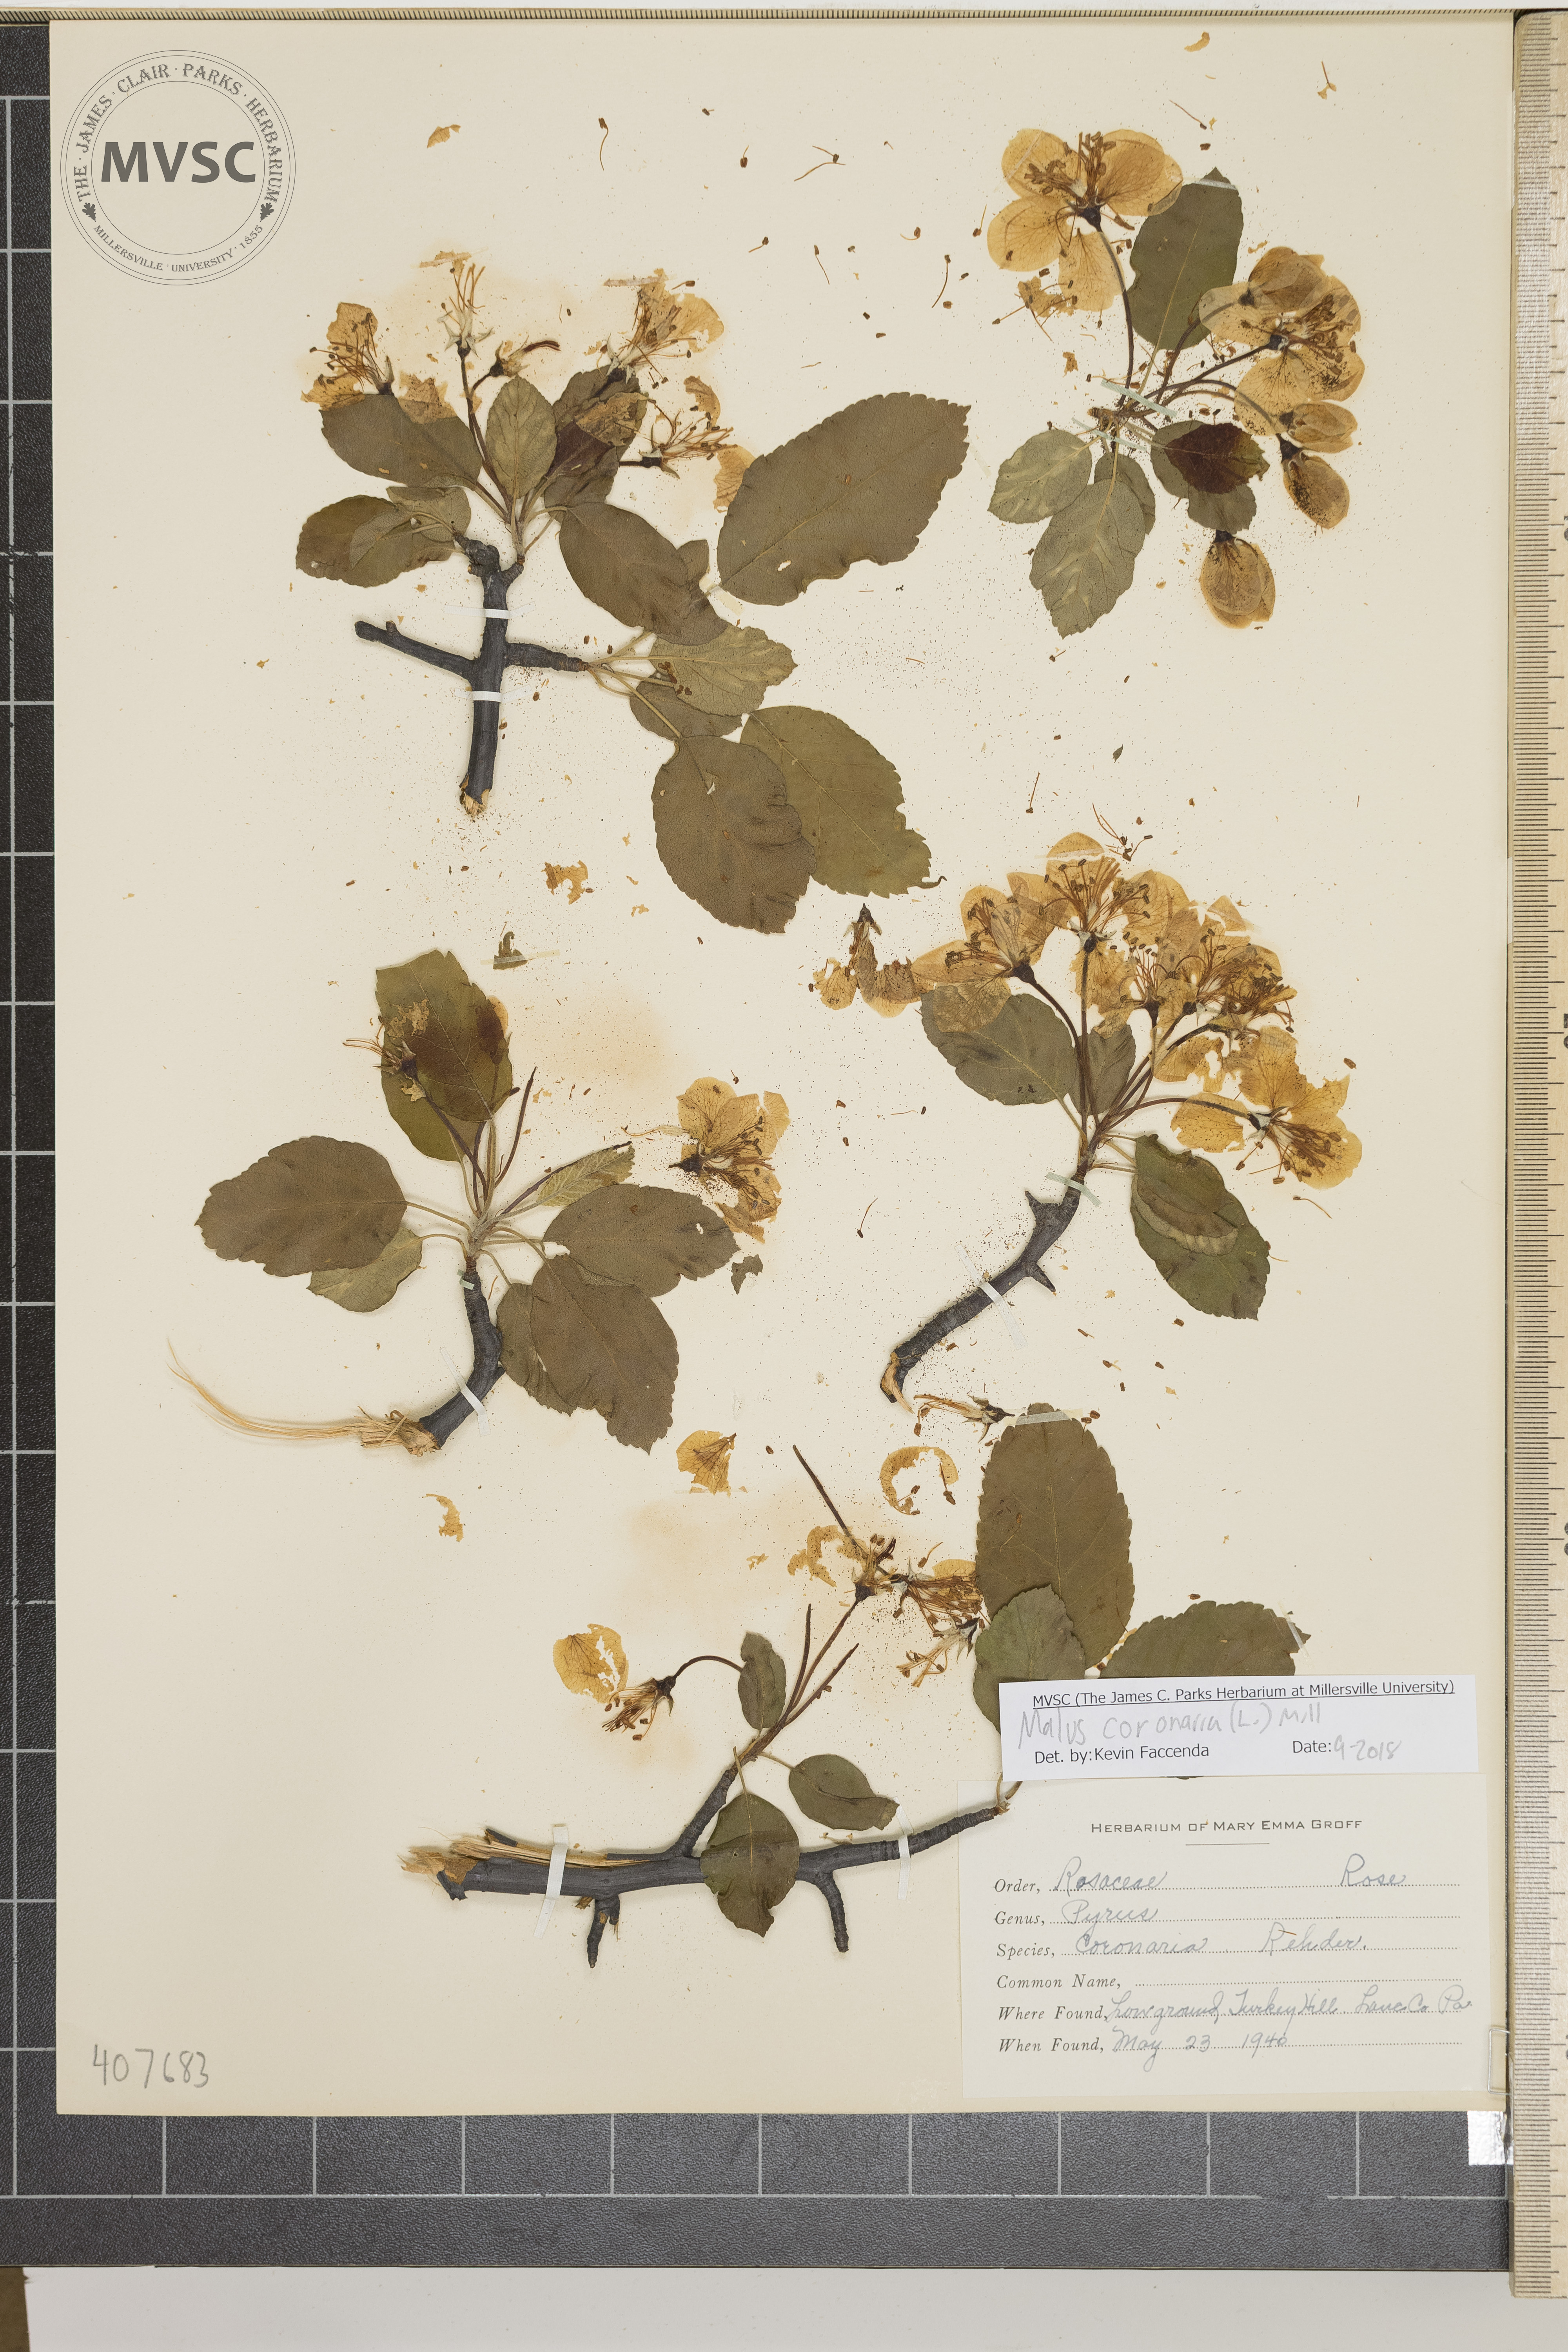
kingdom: Plantae
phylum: Tracheophyta
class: Magnoliopsida
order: Rosales
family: Rosaceae
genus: Malus
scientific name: Malus coronaria
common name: Sweet crab apple
